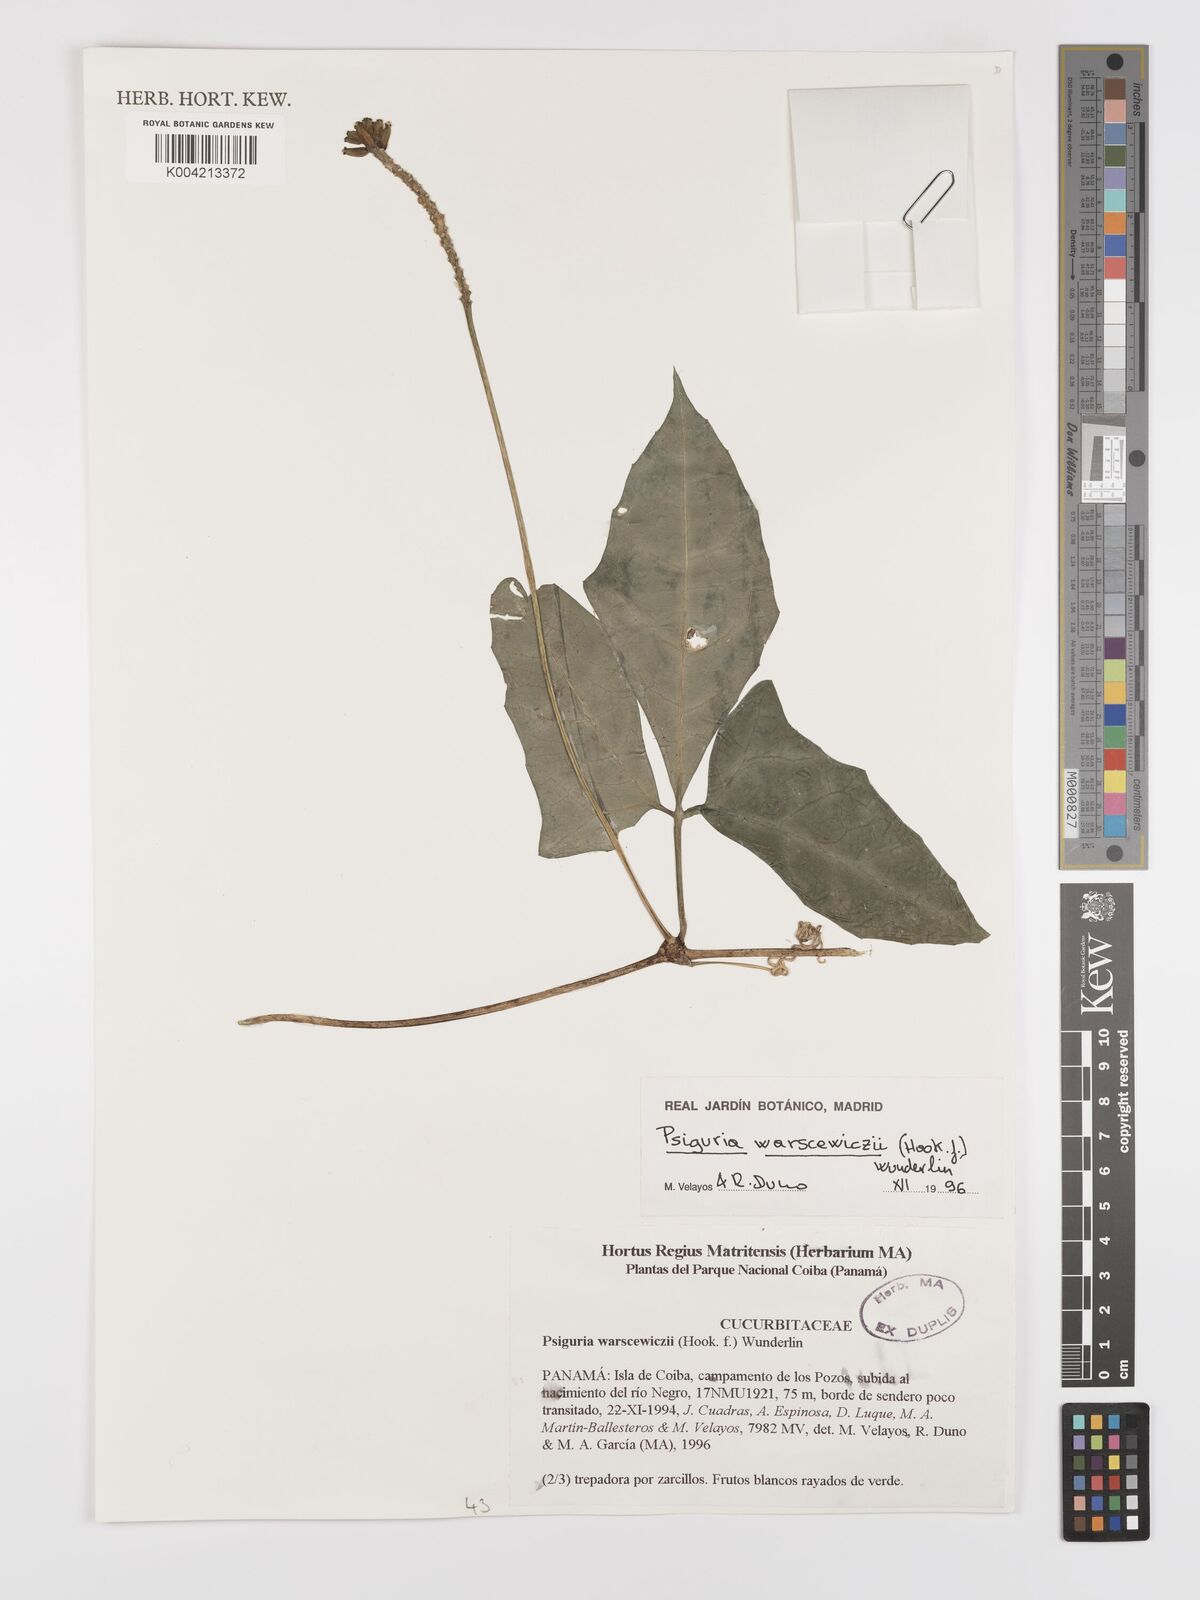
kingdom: Plantae
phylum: Tracheophyta
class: Magnoliopsida
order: Cucurbitales
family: Cucurbitaceae
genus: Psiguria
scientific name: Psiguria warscewiczii
